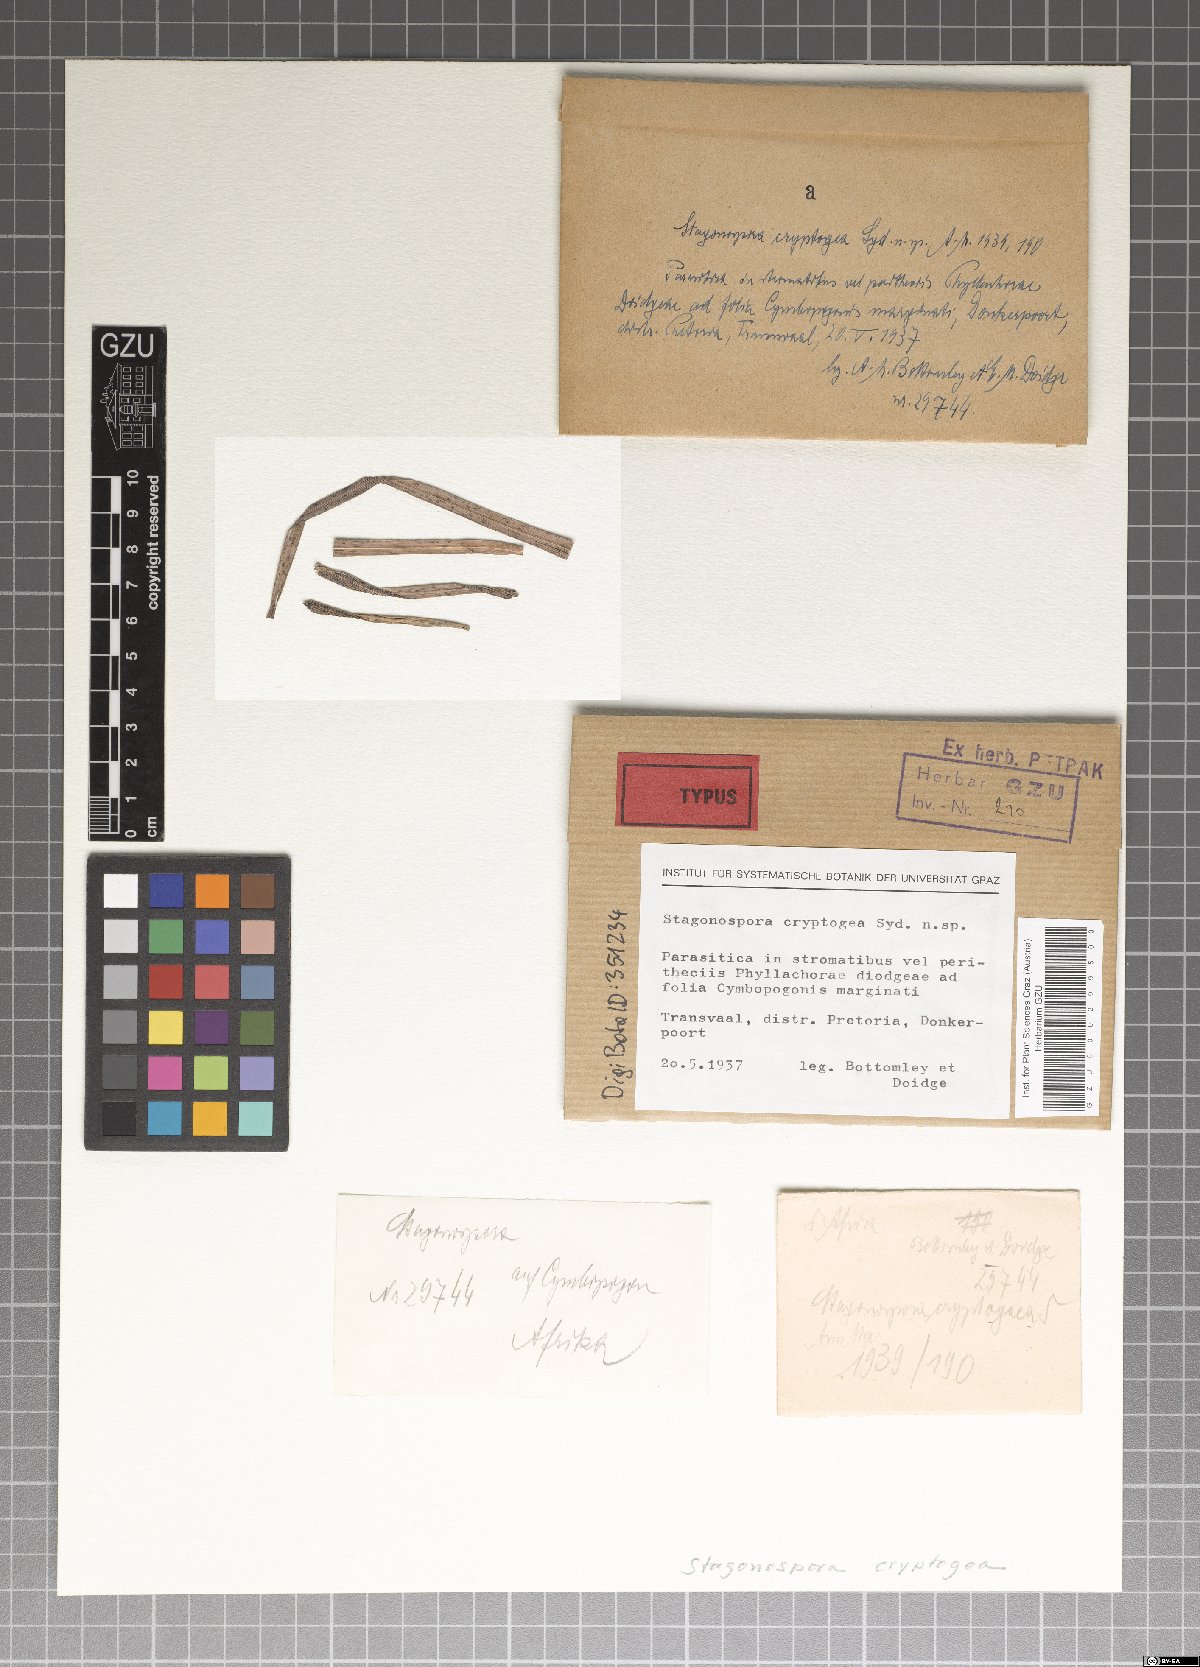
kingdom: Fungi
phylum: Ascomycota
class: Dothideomycetes
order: Pleosporales
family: Phaeosphaeriaceae
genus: Stagonospora
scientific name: Stagonospora cryptogea
